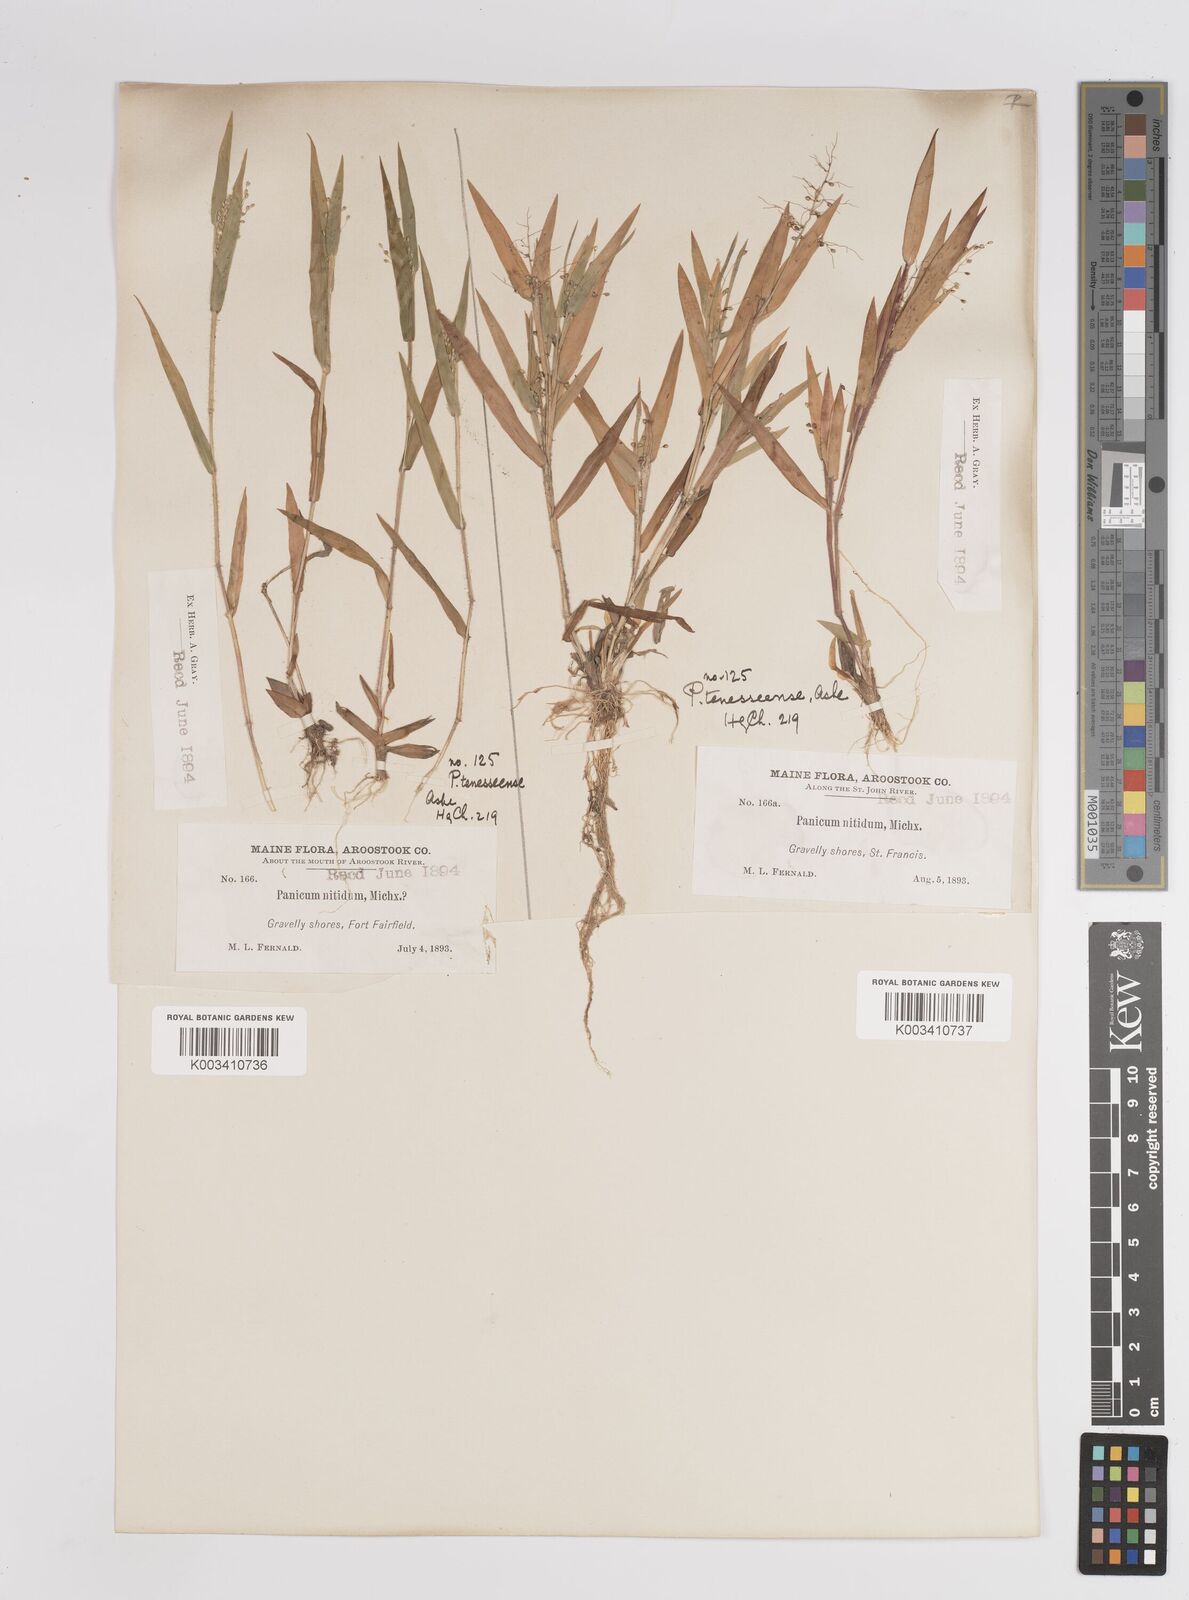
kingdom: Plantae
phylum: Tracheophyta
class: Liliopsida
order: Poales
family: Poaceae
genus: Dichanthelium
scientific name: Dichanthelium acuminatum
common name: Hairy panic grass
